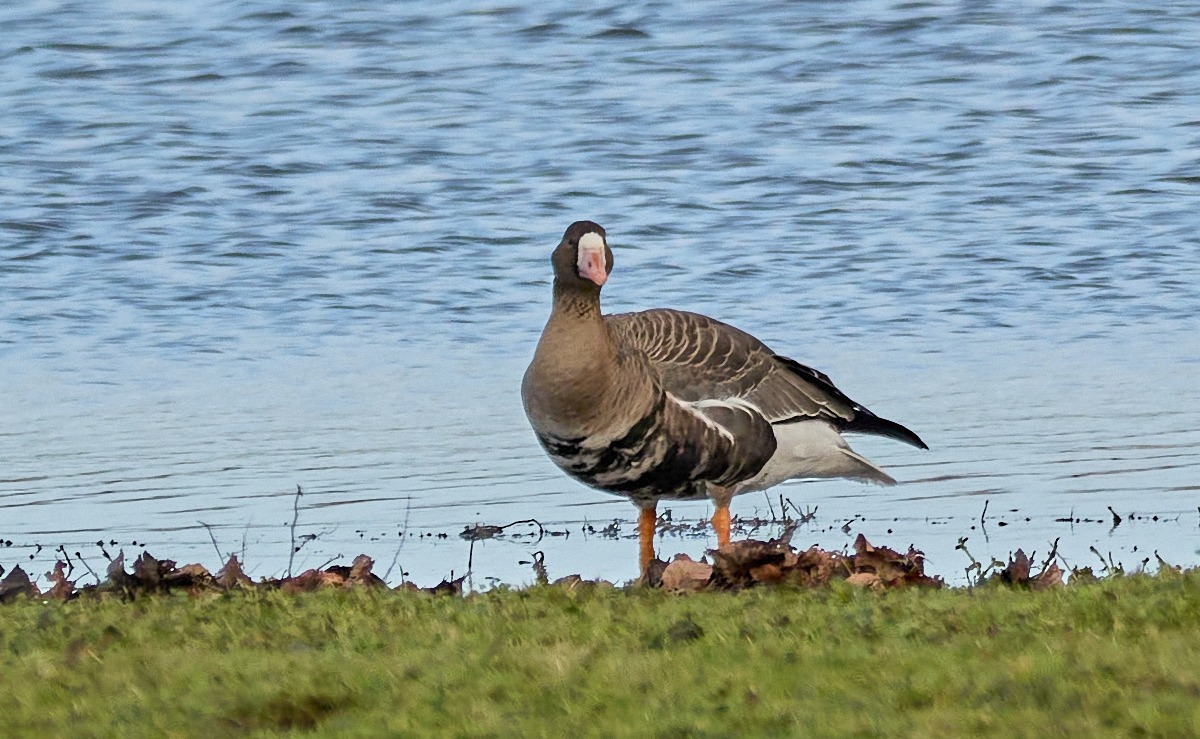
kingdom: Animalia
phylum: Chordata
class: Aves
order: Anseriformes
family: Anatidae
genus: Anser
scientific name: Anser albifrons
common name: Blisgås
